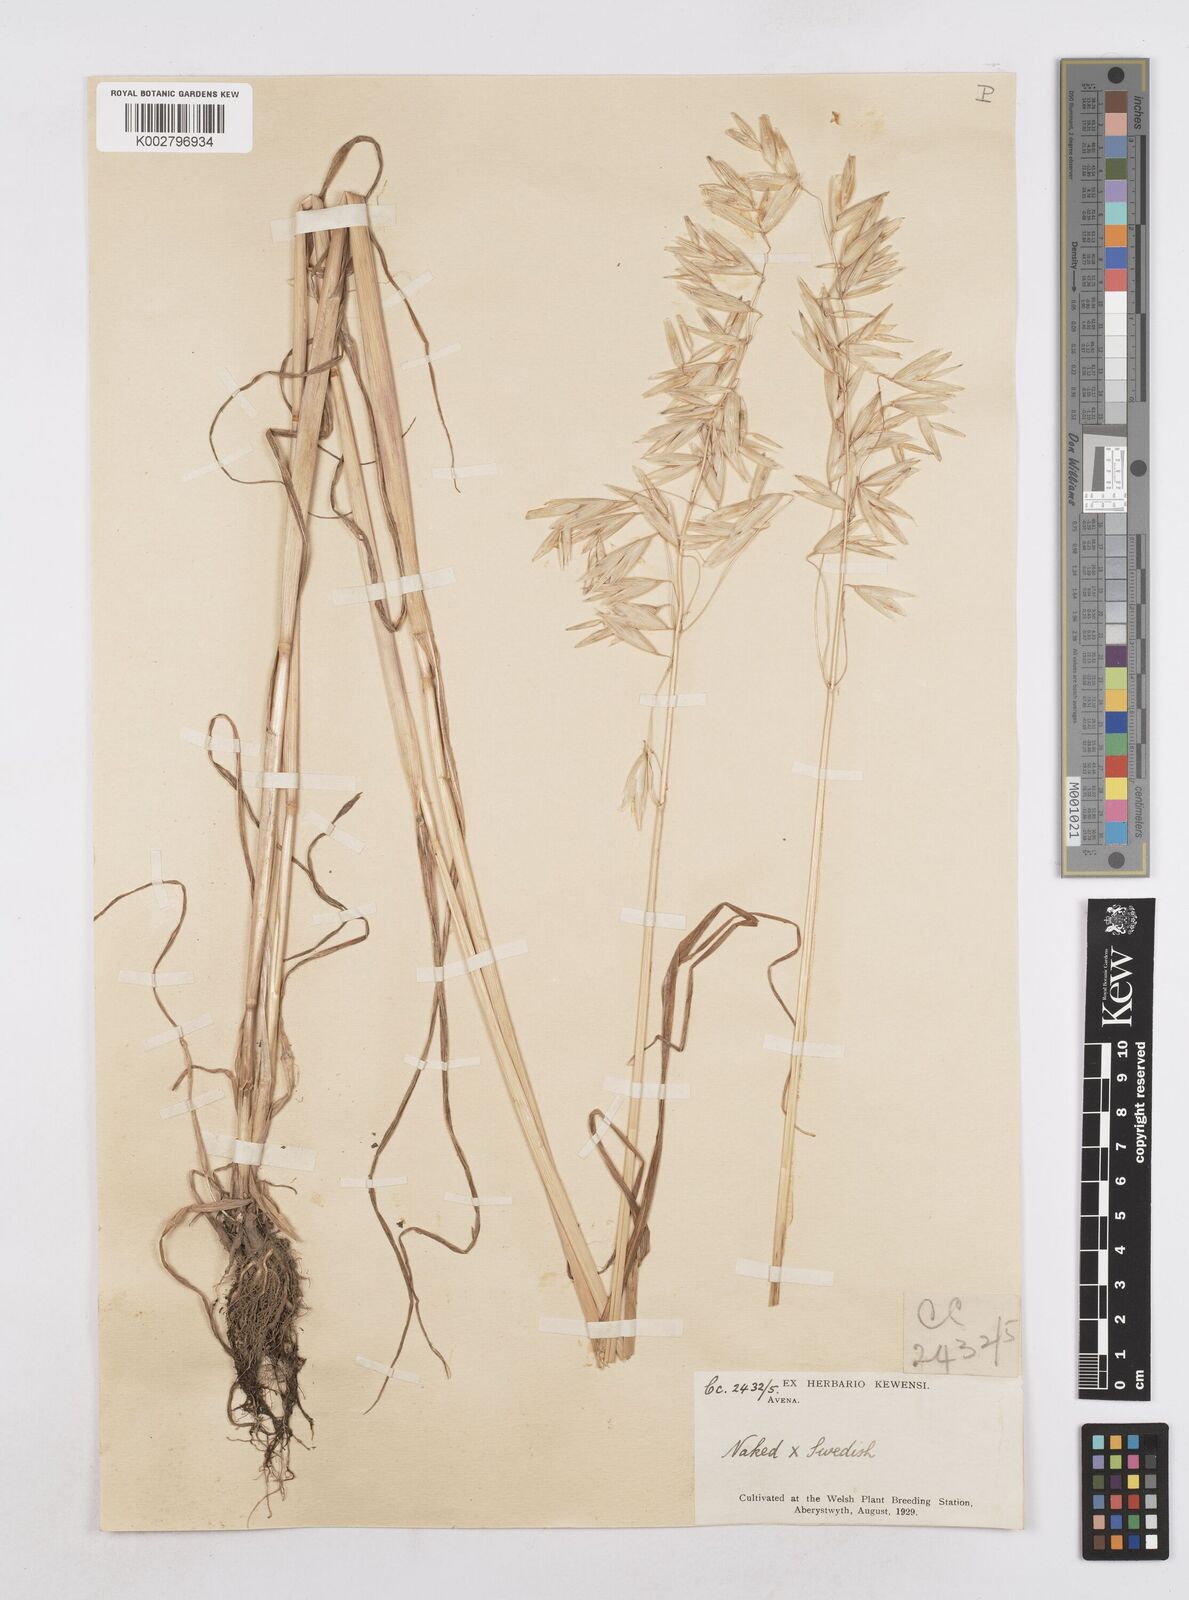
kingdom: Plantae
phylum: Tracheophyta
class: Liliopsida
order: Poales
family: Poaceae
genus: Avena
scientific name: Avena nuda
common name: Naked oat
